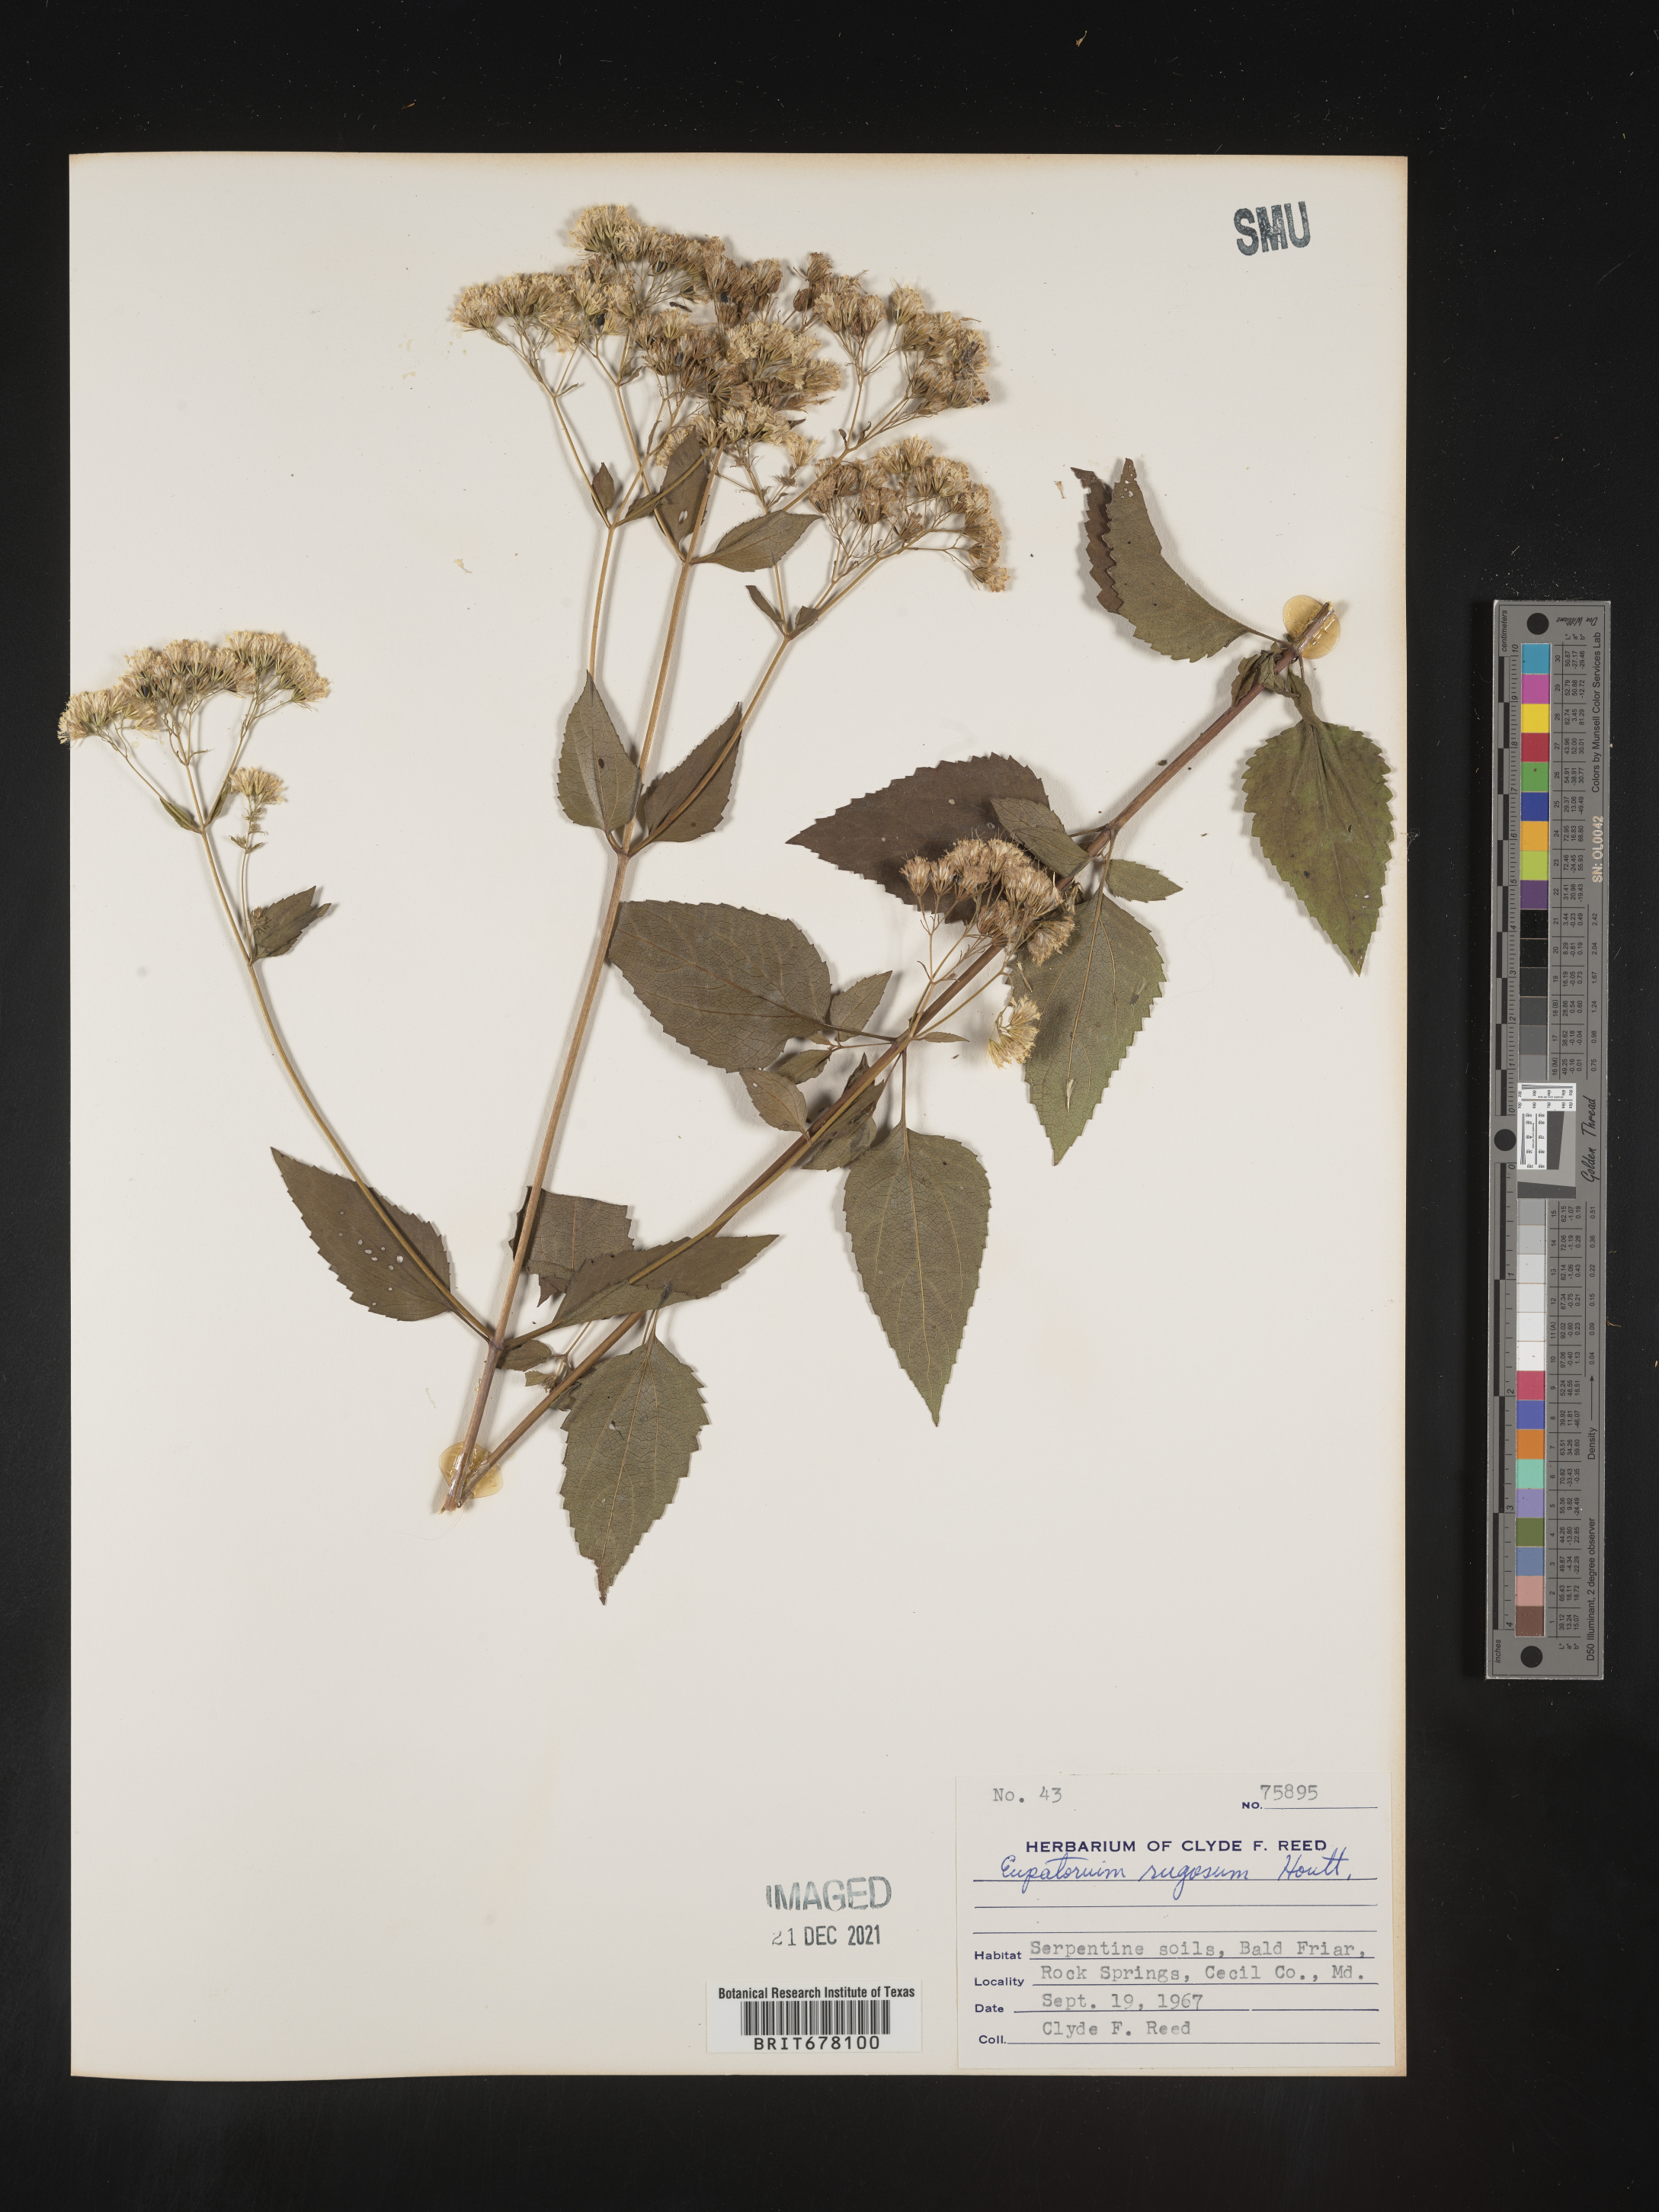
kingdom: Plantae
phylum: Tracheophyta
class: Magnoliopsida
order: Asterales
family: Asteraceae
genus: Eupatorium
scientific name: Eupatorium
